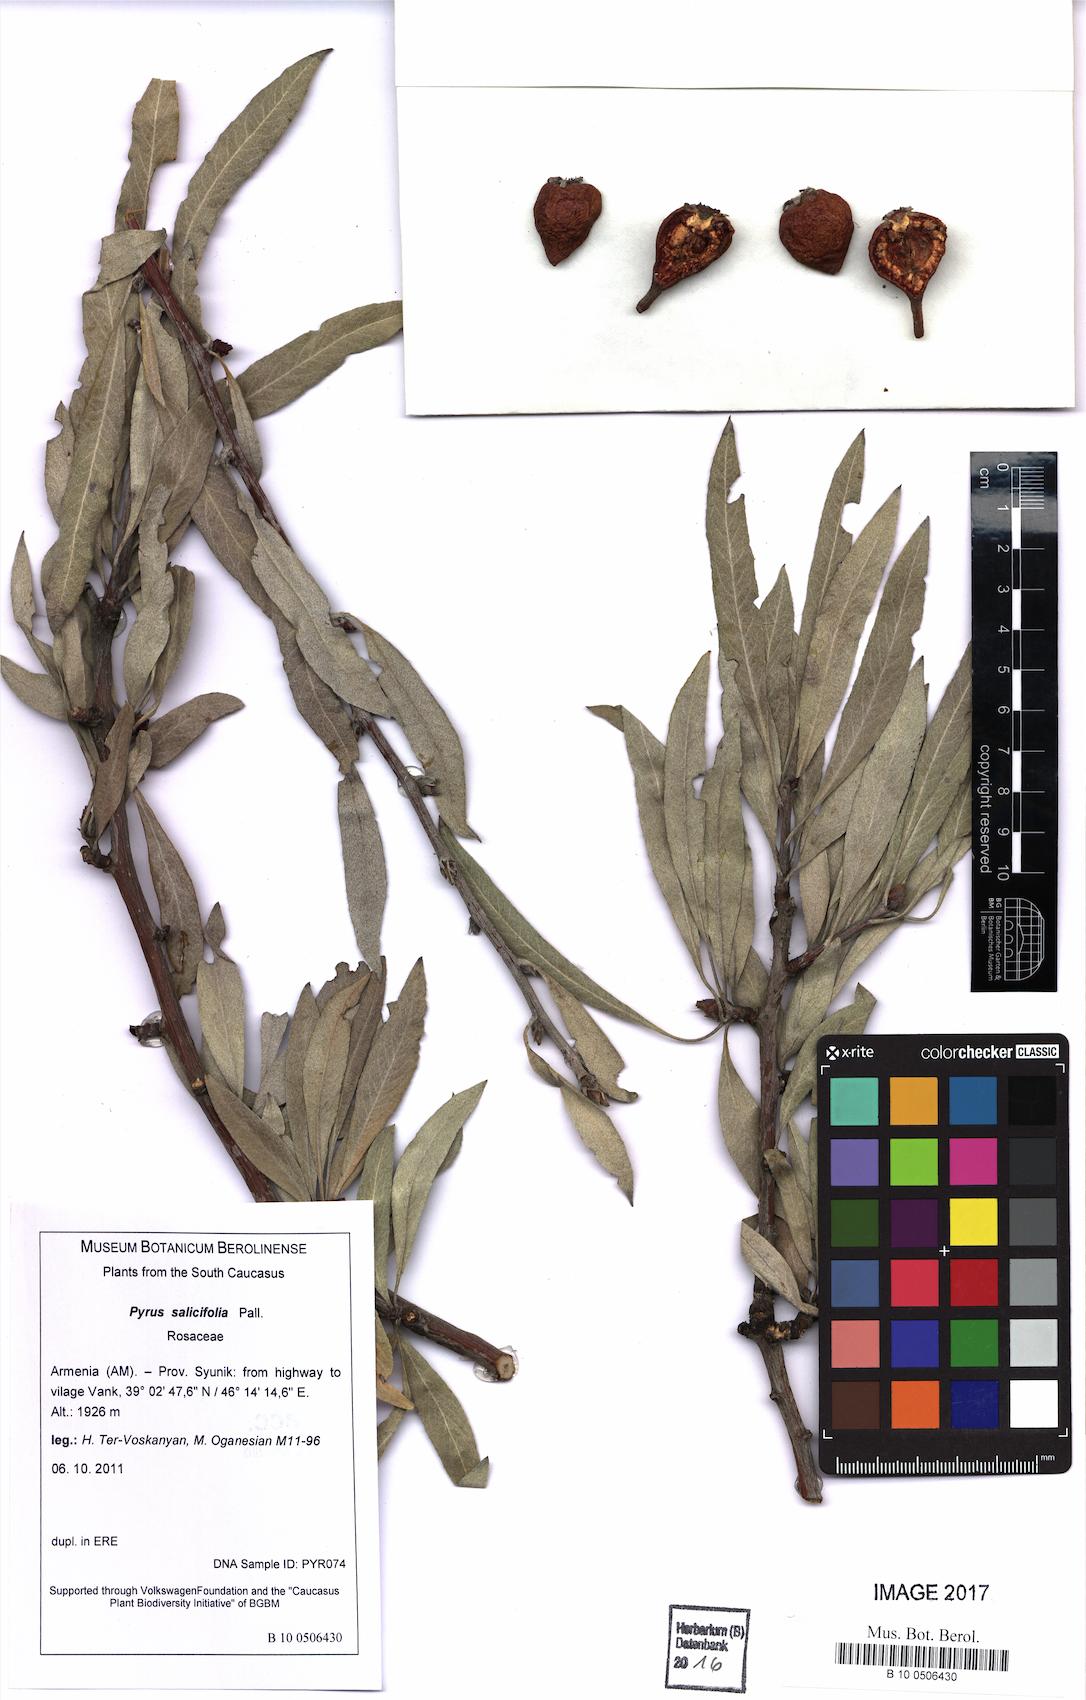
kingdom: Plantae
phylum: Tracheophyta
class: Magnoliopsida
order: Rosales
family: Rosaceae
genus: Pyrus
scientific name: Pyrus salicifolia
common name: Willow-leaved pear
